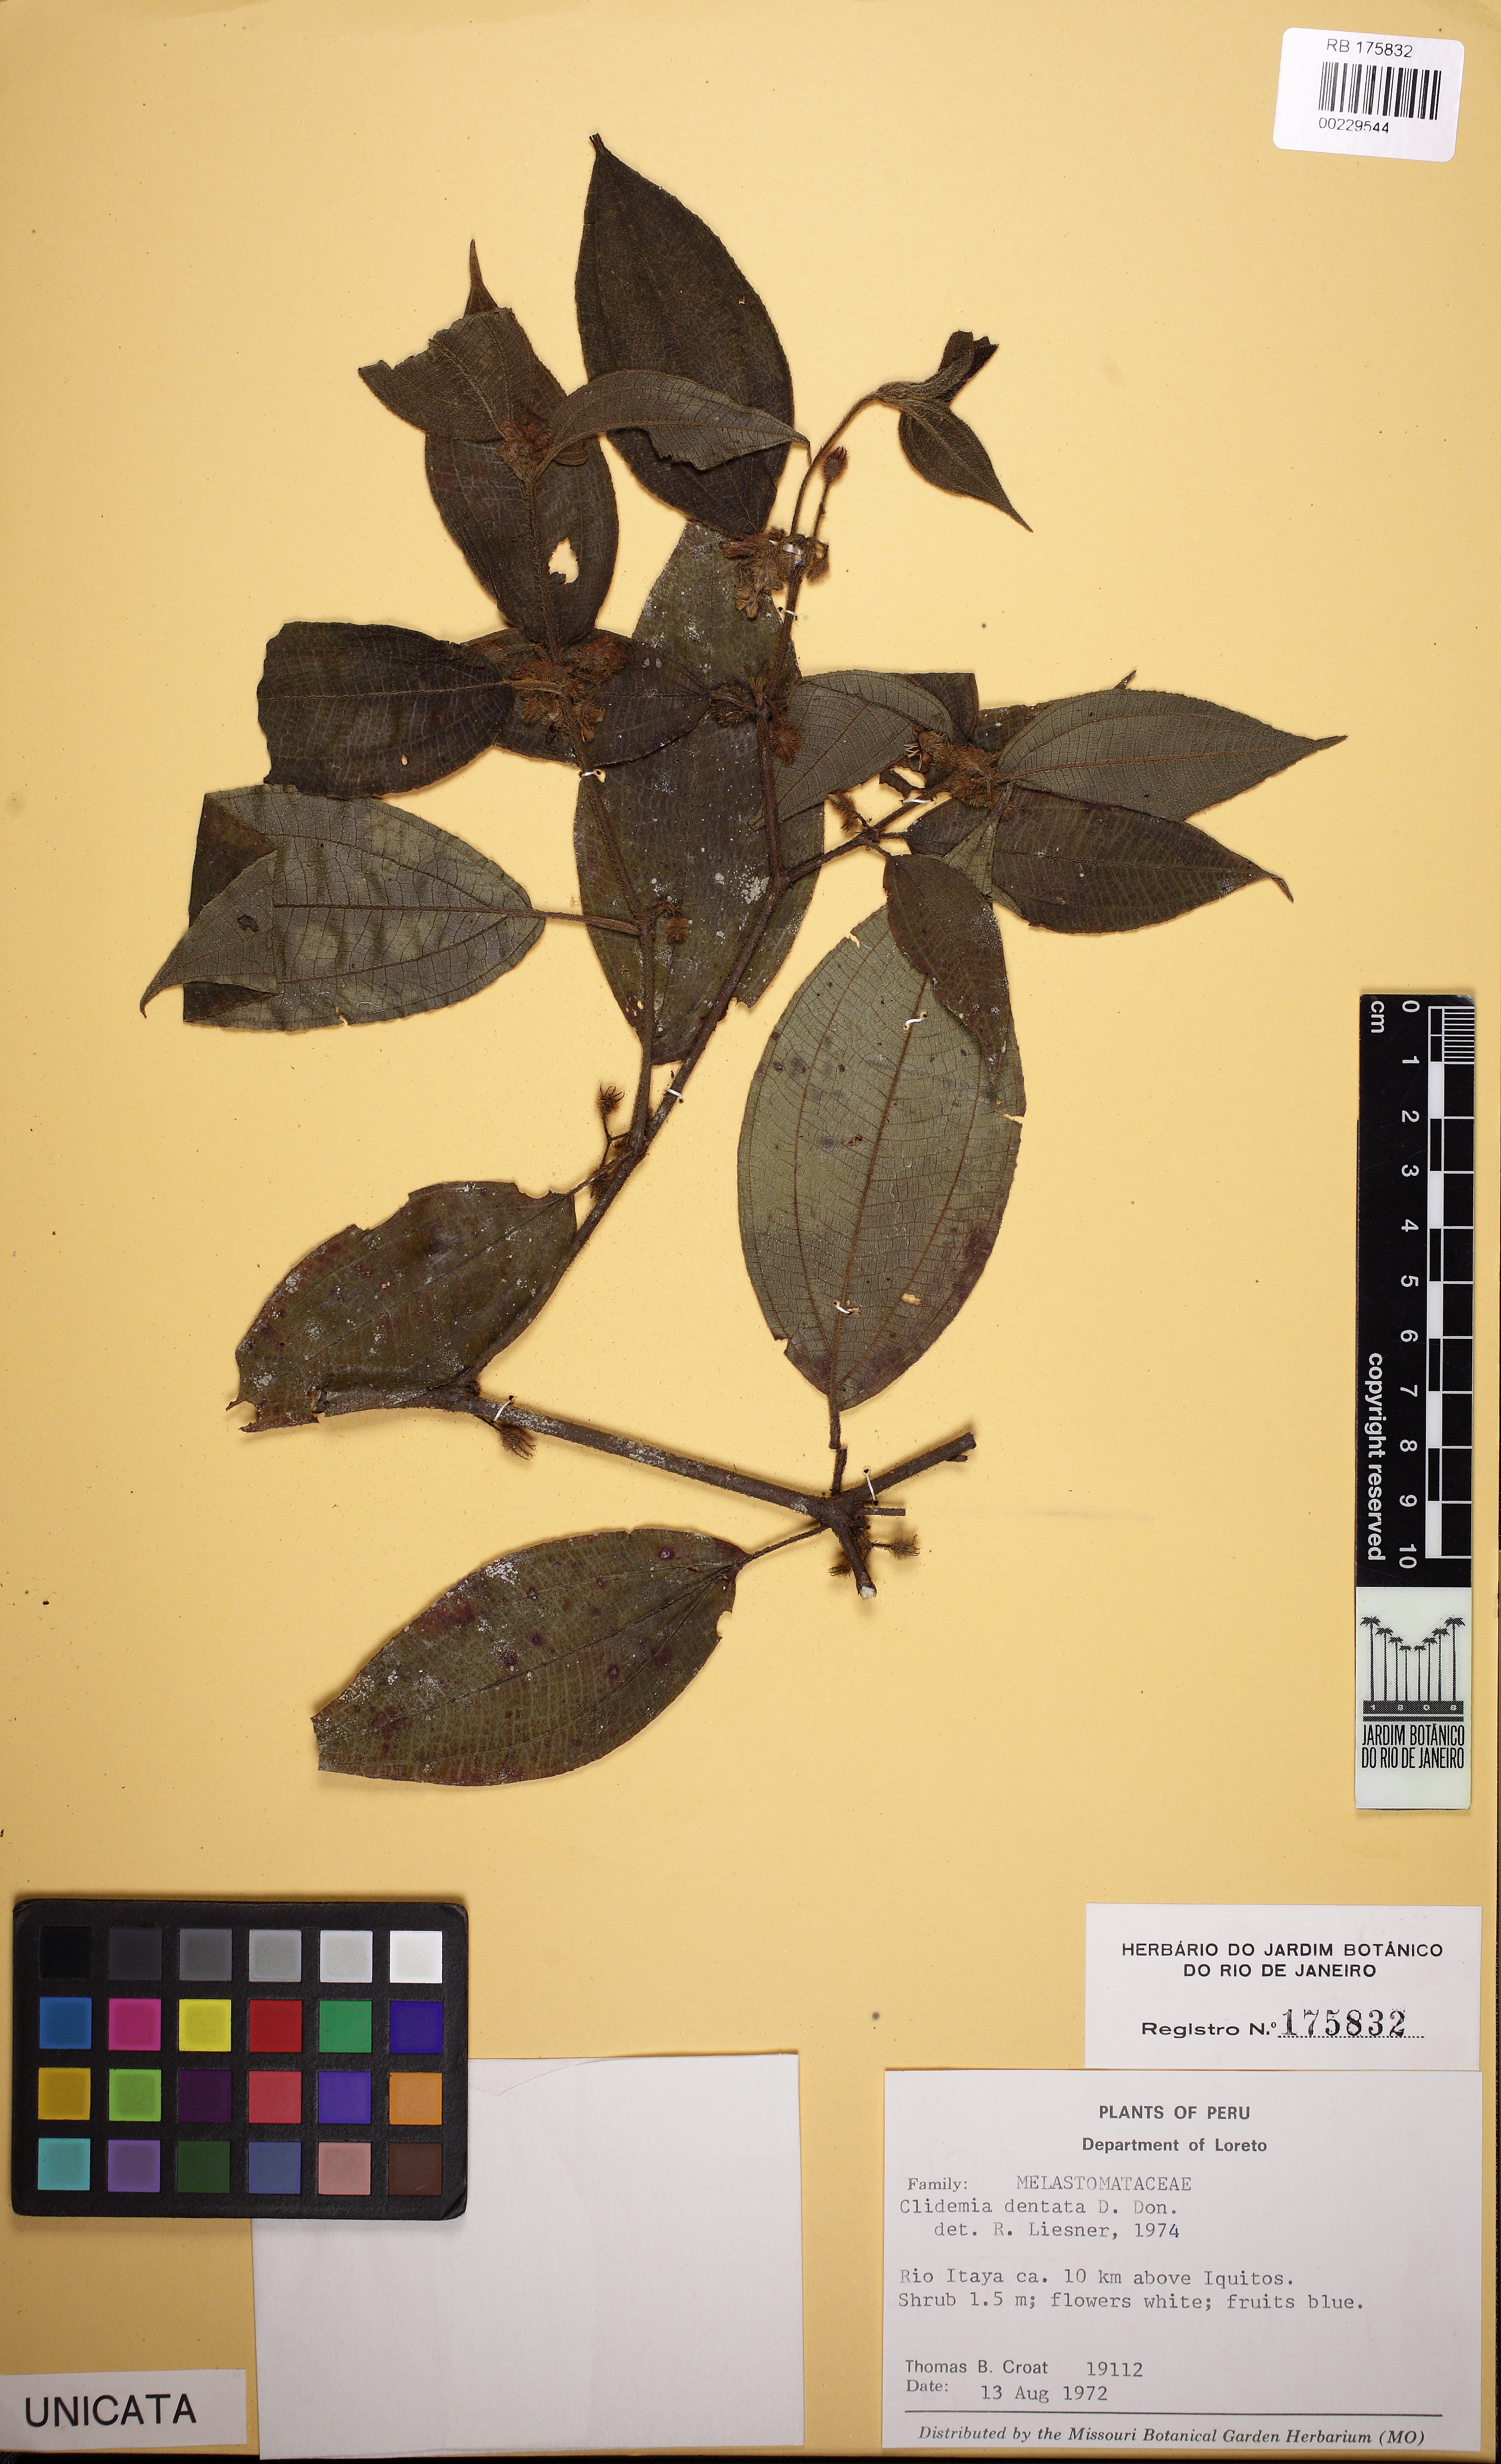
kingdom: Plantae
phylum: Tracheophyta
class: Magnoliopsida
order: Myrtales
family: Melastomataceae
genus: Miconia
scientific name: Miconia dentata
